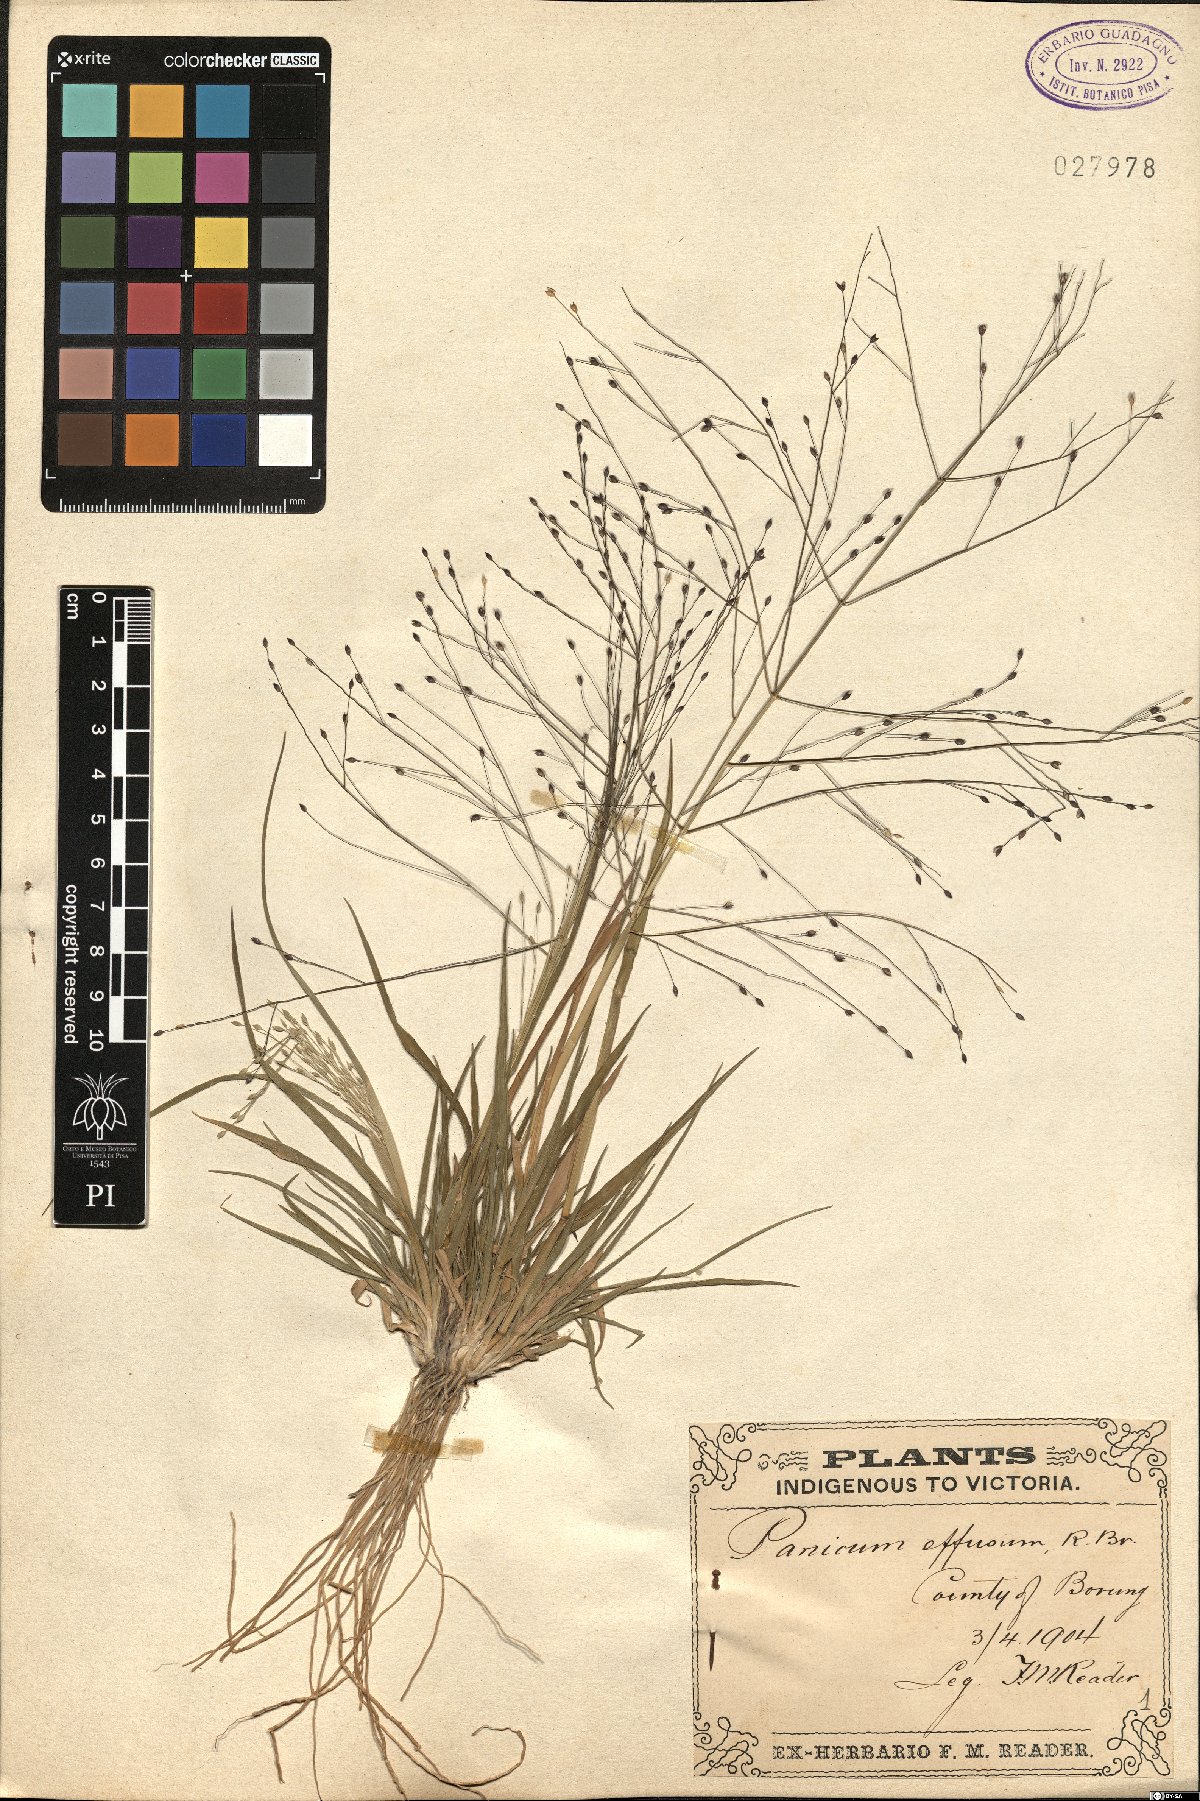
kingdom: Plantae
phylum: Tracheophyta
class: Liliopsida
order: Poales
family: Poaceae
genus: Panicum
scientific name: Panicum effusum
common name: Hairy panic grass
